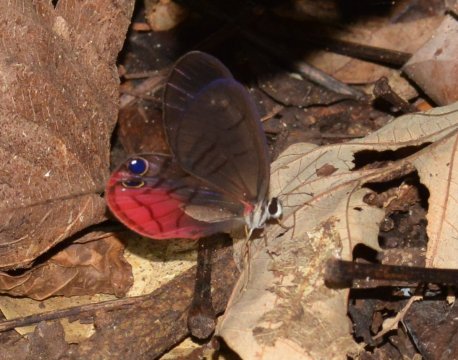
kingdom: Animalia
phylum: Arthropoda
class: Insecta
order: Lepidoptera
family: Nymphalidae
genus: Cithaerias
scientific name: Cithaerias pireta
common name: Rusted Clearwing-Satyr
